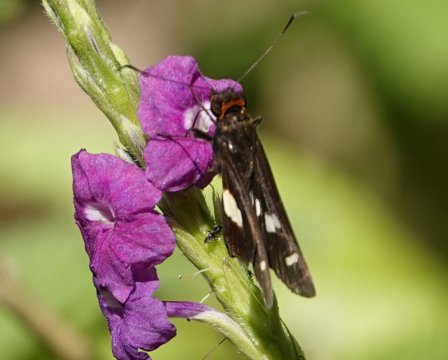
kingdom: Animalia
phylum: Arthropoda
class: Insecta
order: Lepidoptera
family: Hesperiidae
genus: Cobalus
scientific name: Cobalus calvina
